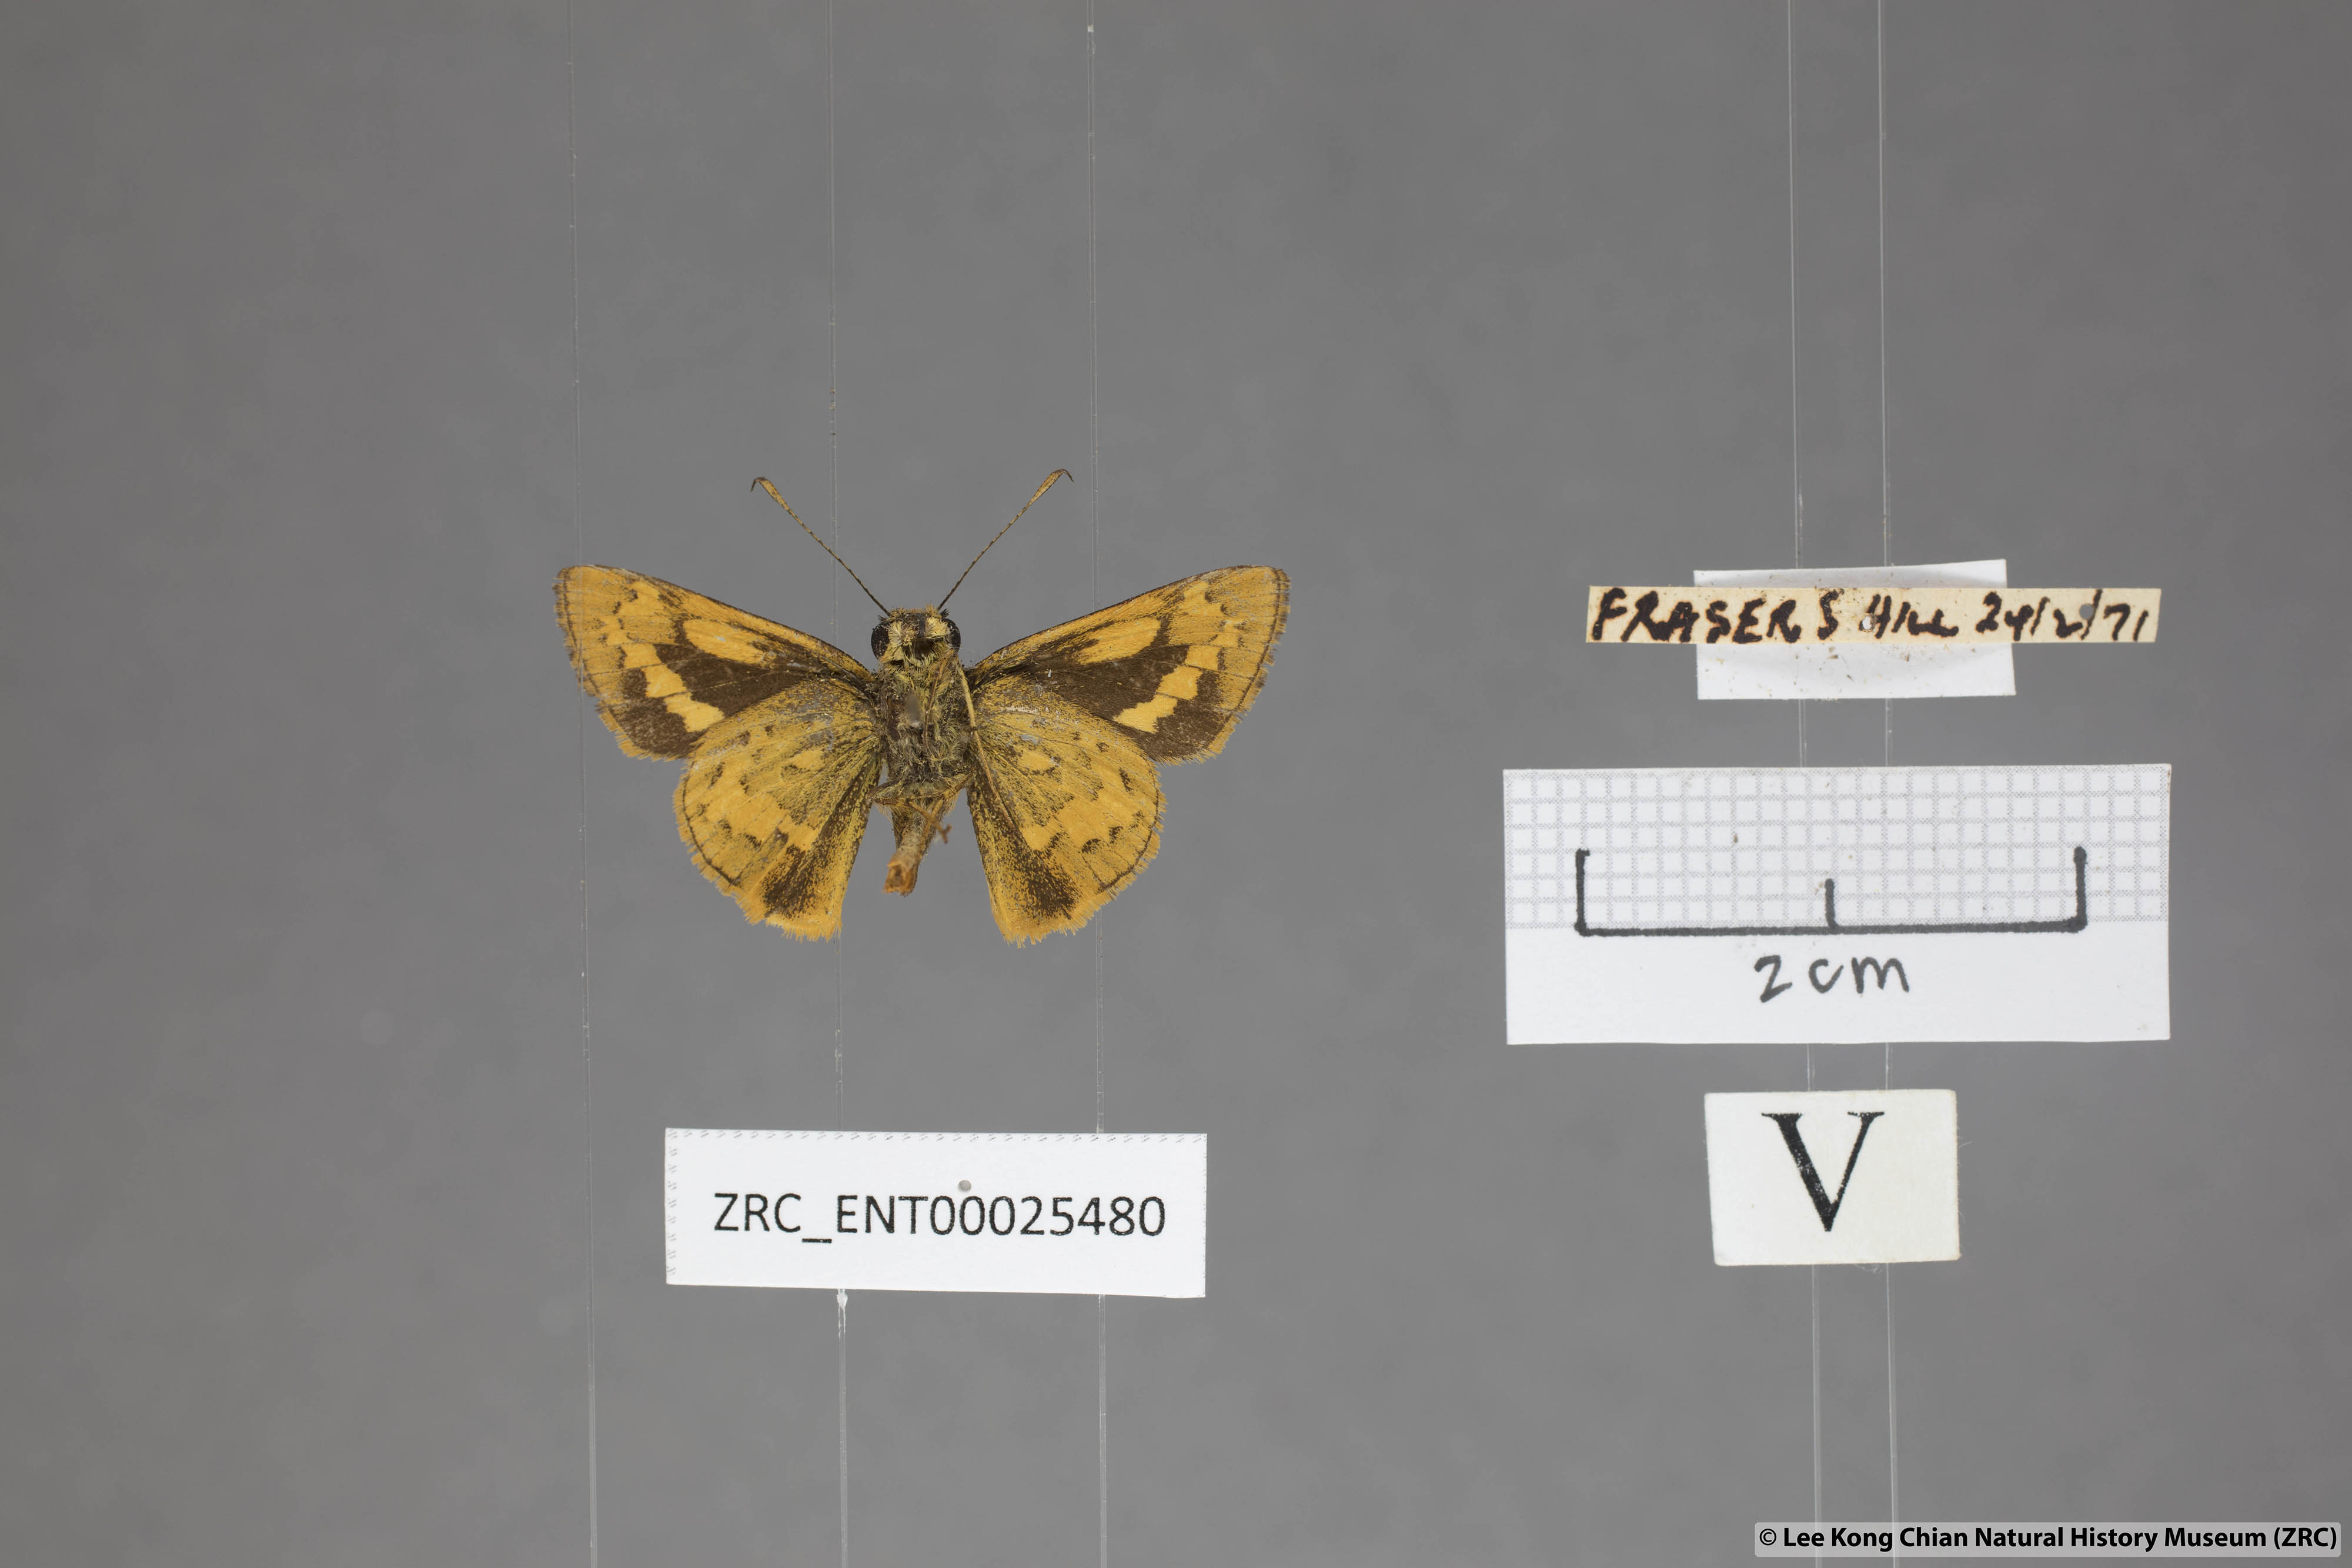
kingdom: Animalia
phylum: Arthropoda
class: Insecta
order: Lepidoptera
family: Hesperiidae
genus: Potanthus
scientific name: Potanthus rectifasciata
